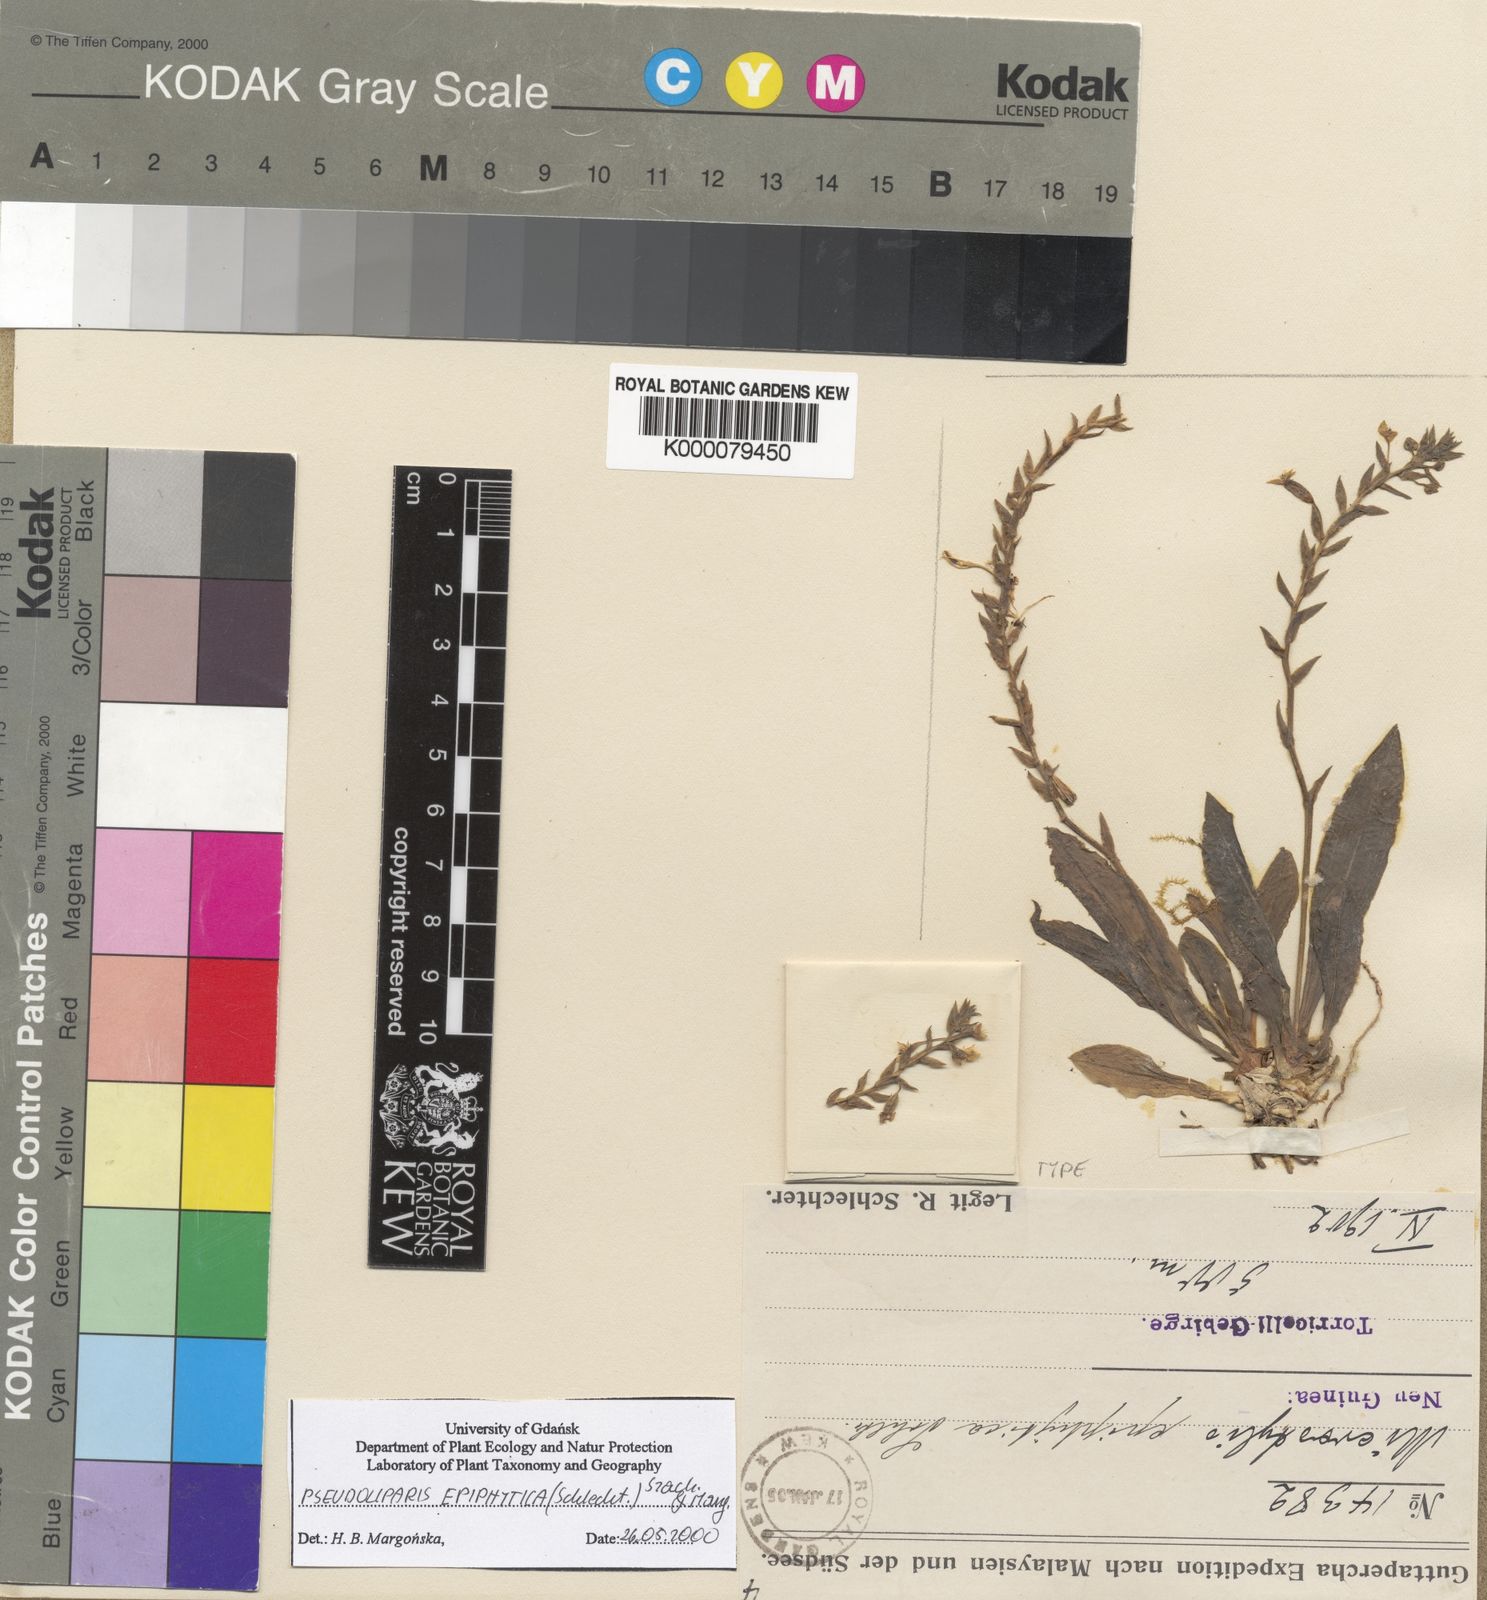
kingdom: Plantae
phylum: Tracheophyta
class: Liliopsida
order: Asparagales
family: Orchidaceae
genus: Crepidium
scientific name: Crepidium epiphyticum
